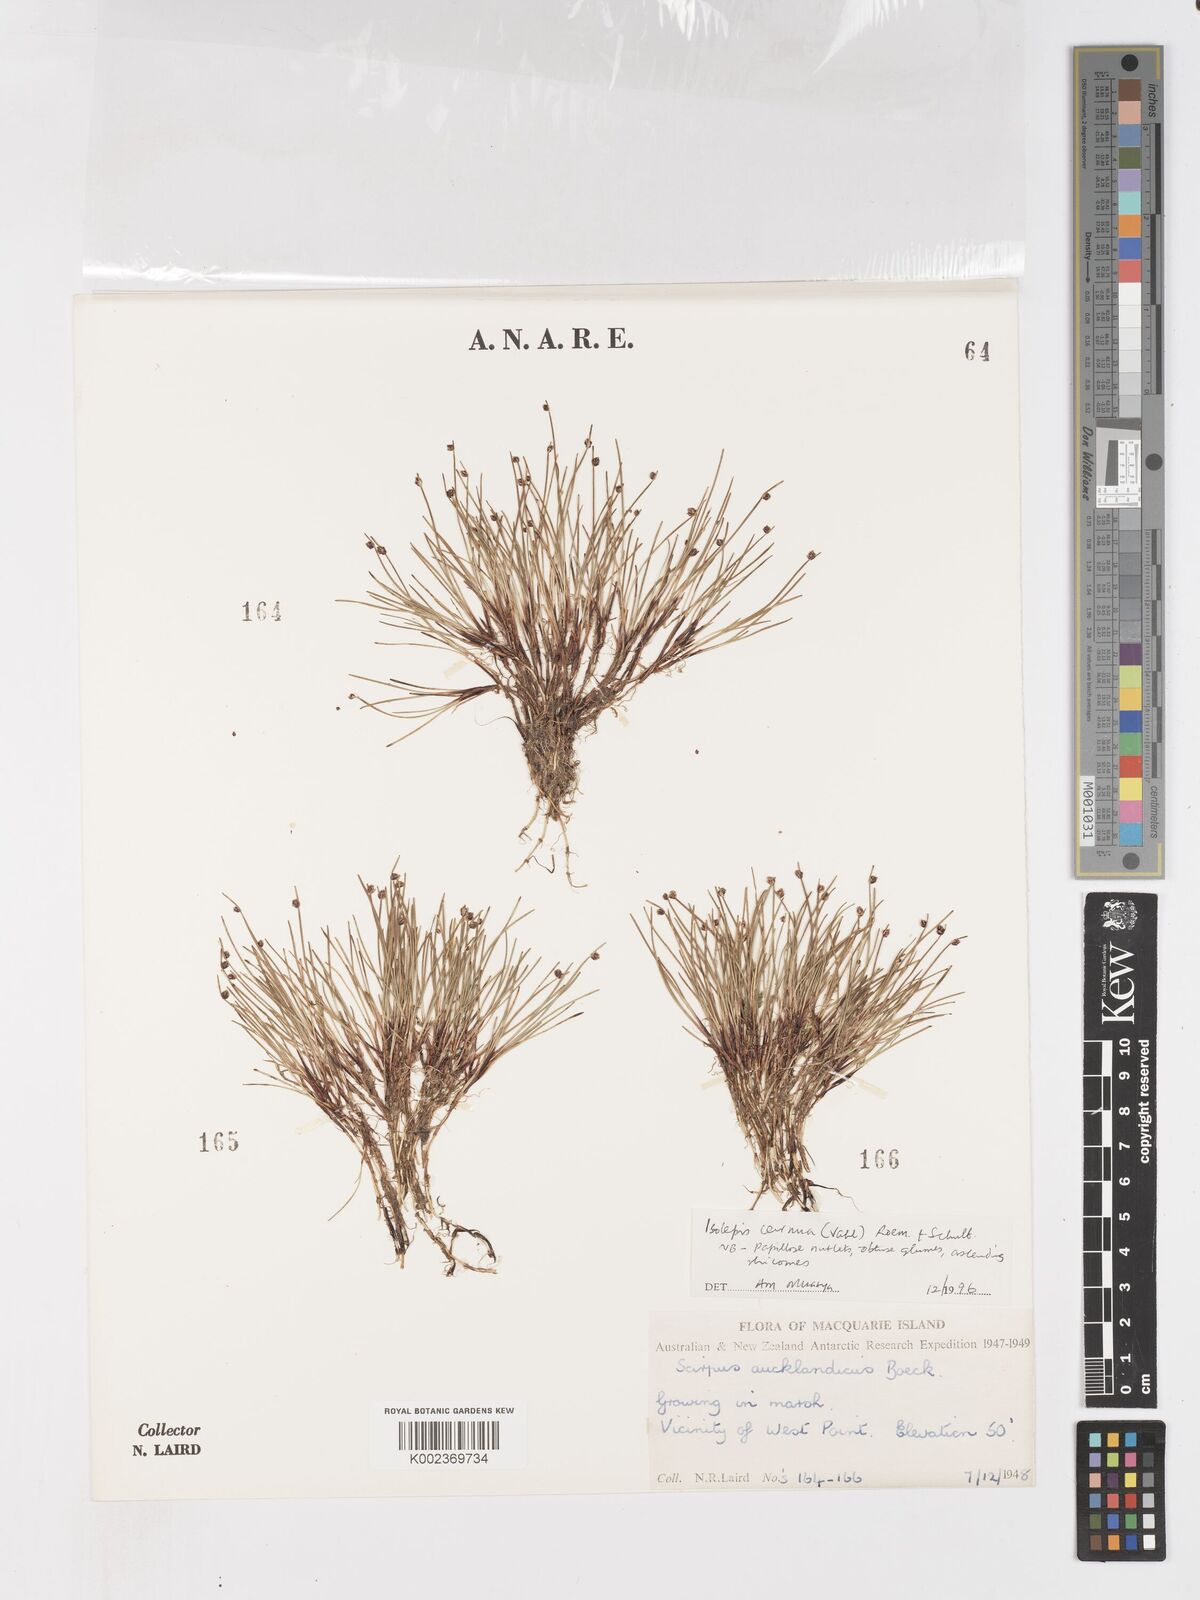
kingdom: Plantae
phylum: Tracheophyta
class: Liliopsida
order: Poales
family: Cyperaceae
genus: Isolepis
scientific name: Isolepis cernua
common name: Slender club-rush
